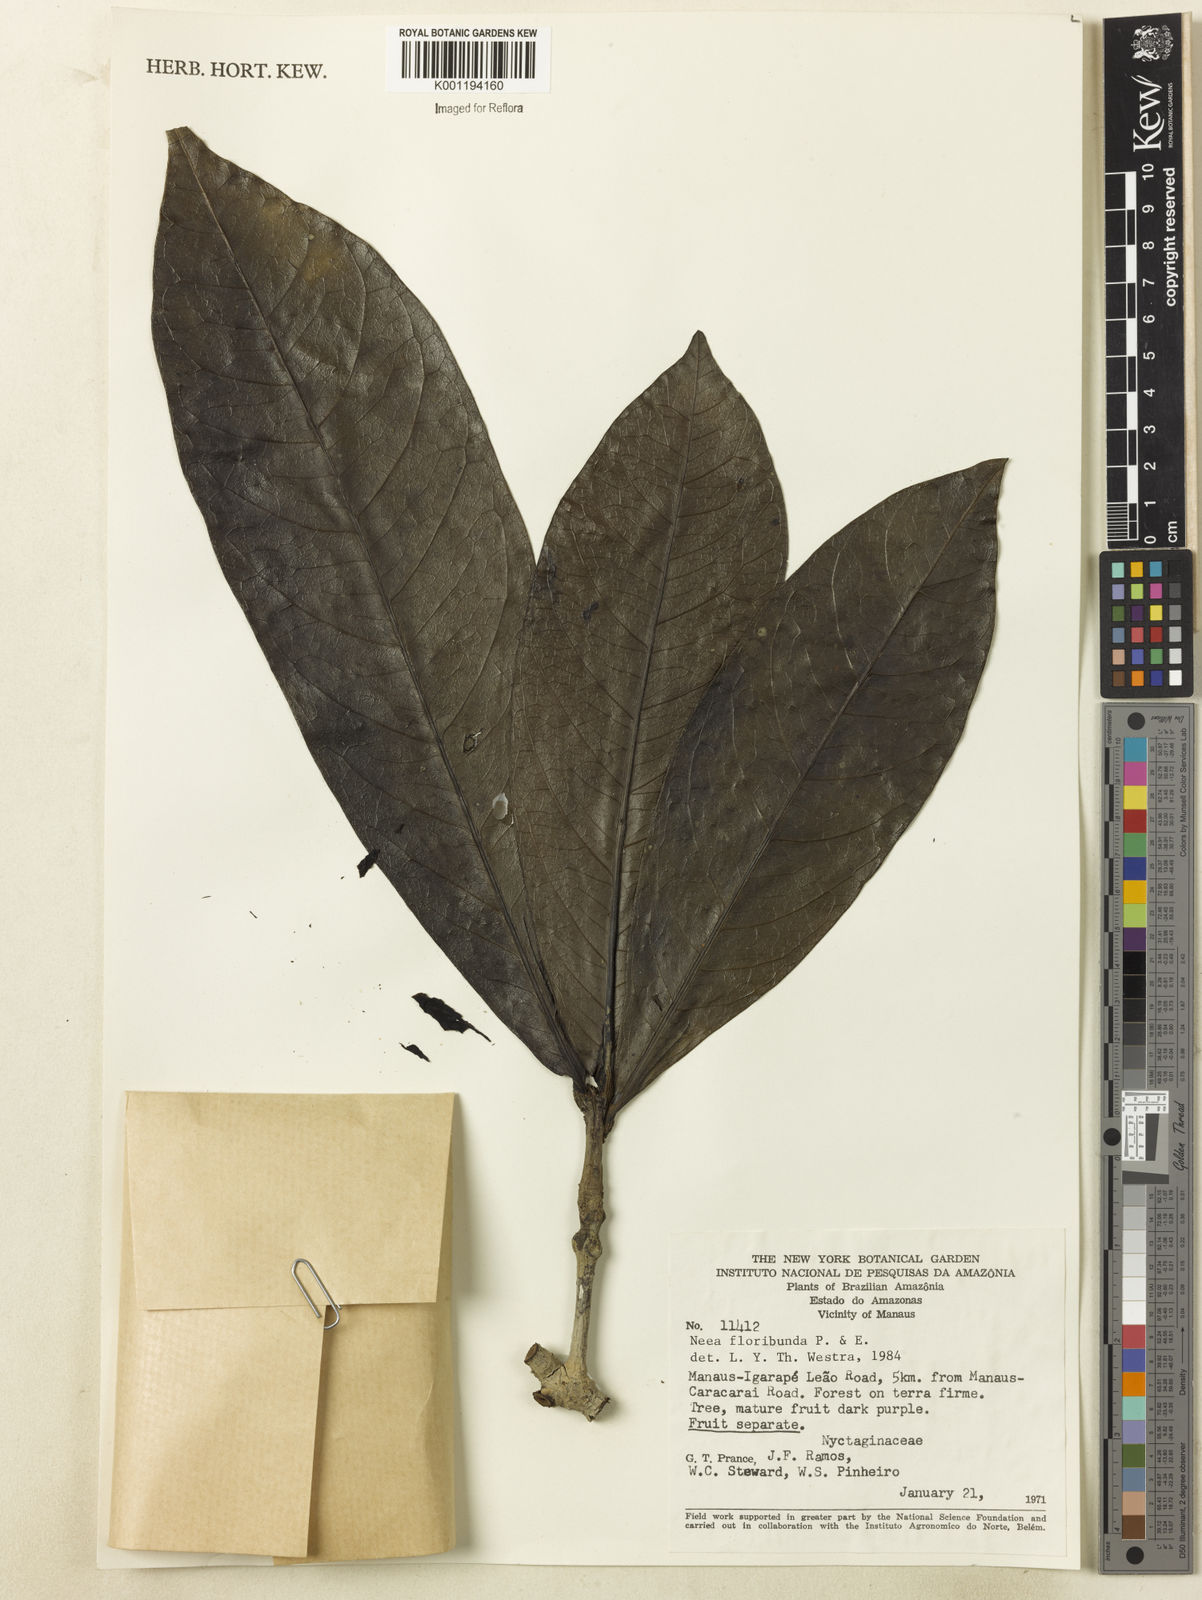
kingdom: Plantae
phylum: Tracheophyta
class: Magnoliopsida
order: Caryophyllales
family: Nyctaginaceae
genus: Neea
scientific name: Neea floribunda
